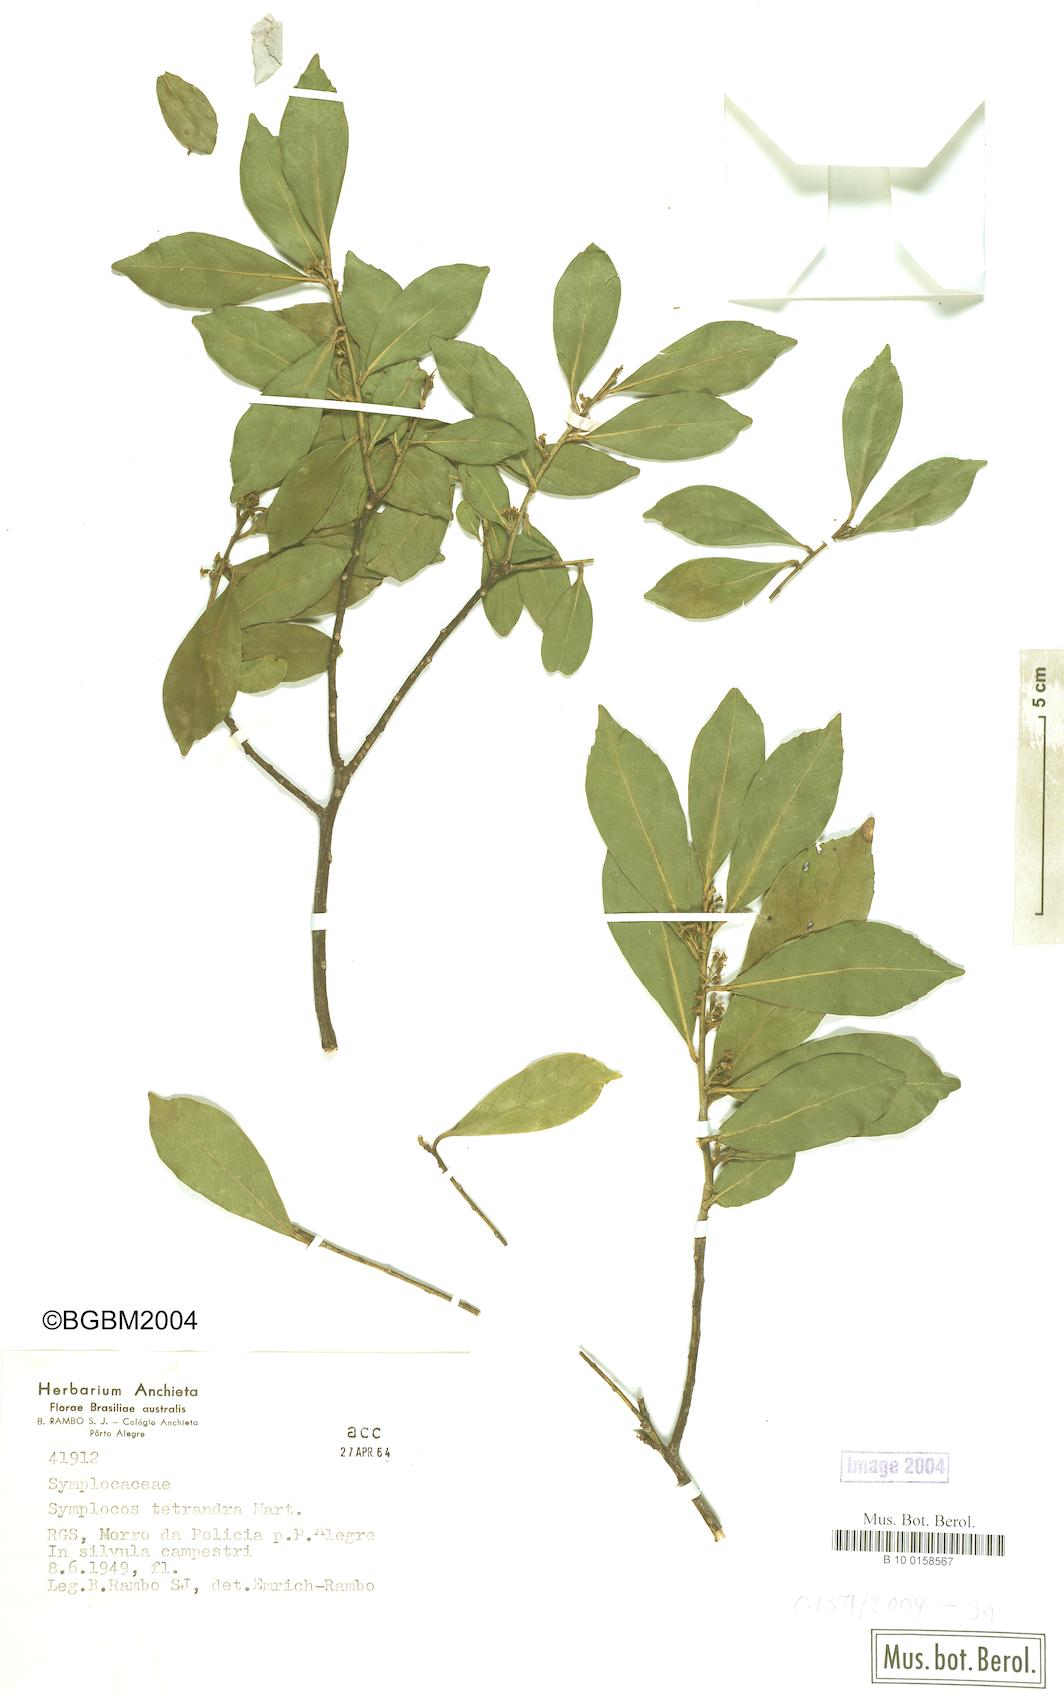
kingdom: Plantae
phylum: Tracheophyta
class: Magnoliopsida
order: Ericales
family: Symplocaceae
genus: Symplocos
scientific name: Symplocos tetrandra
